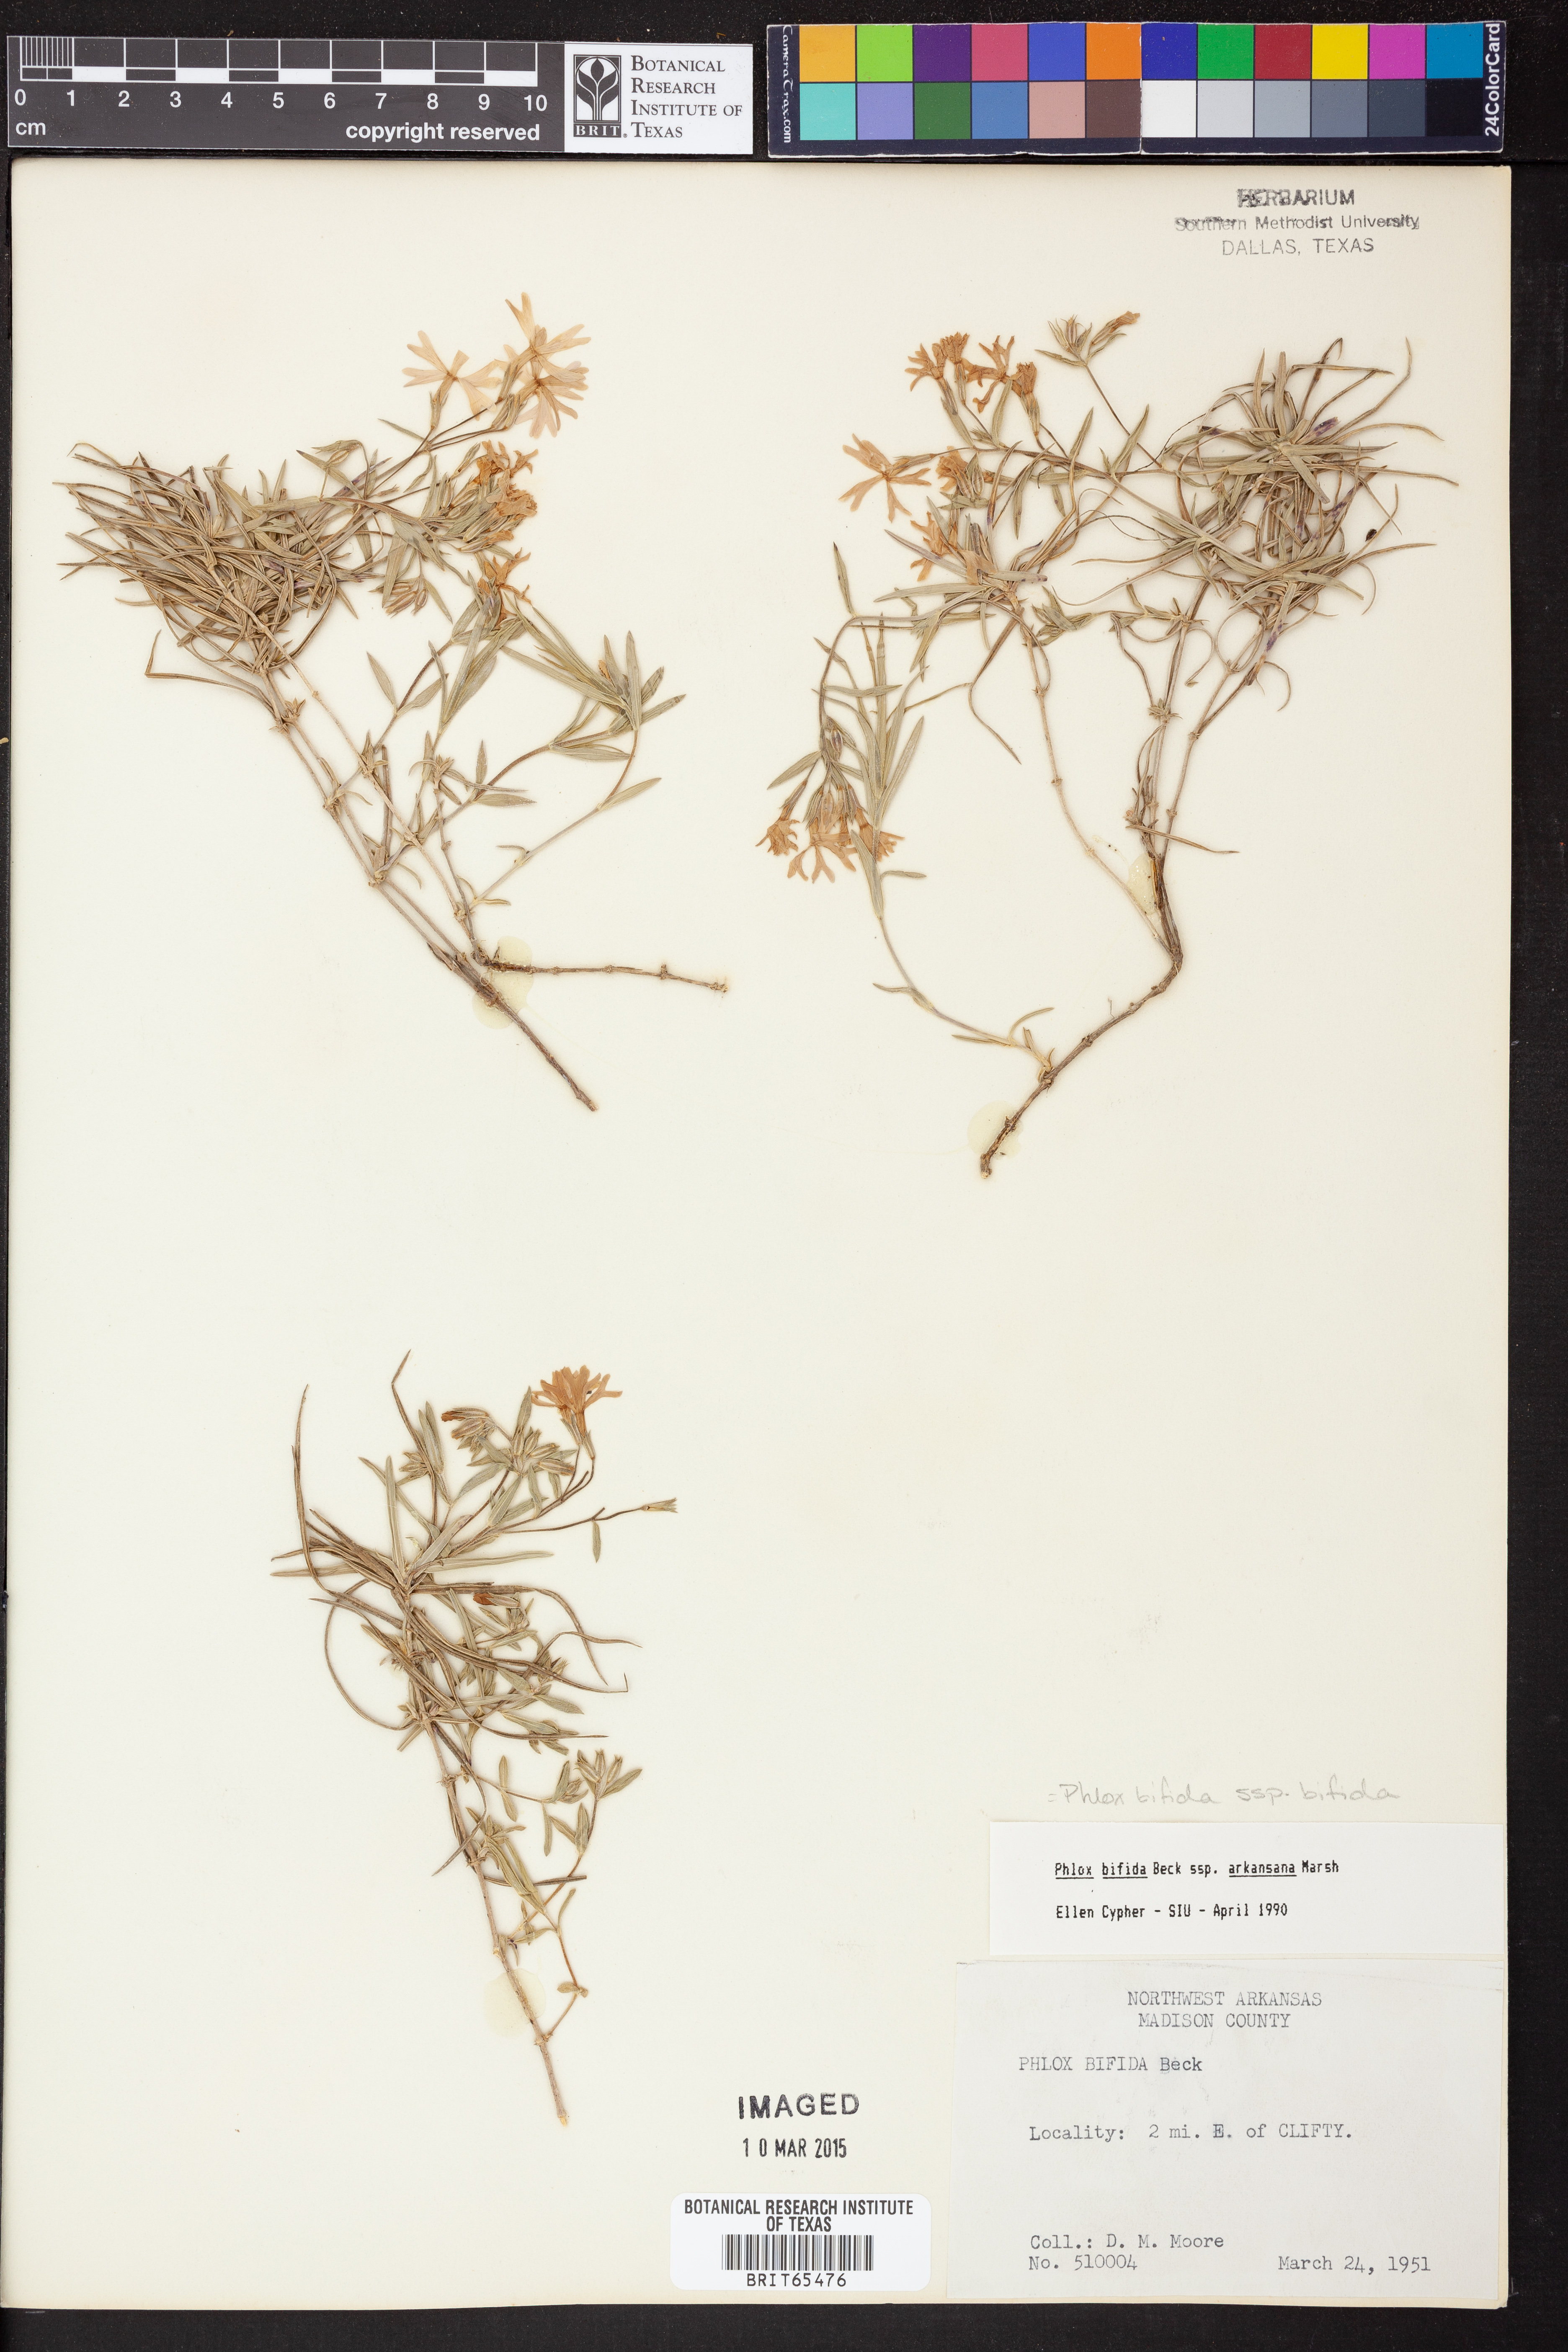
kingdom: Plantae
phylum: Tracheophyta
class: Magnoliopsida
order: Ericales
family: Polemoniaceae
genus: Phlox
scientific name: Phlox bifida
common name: Sand phlox
